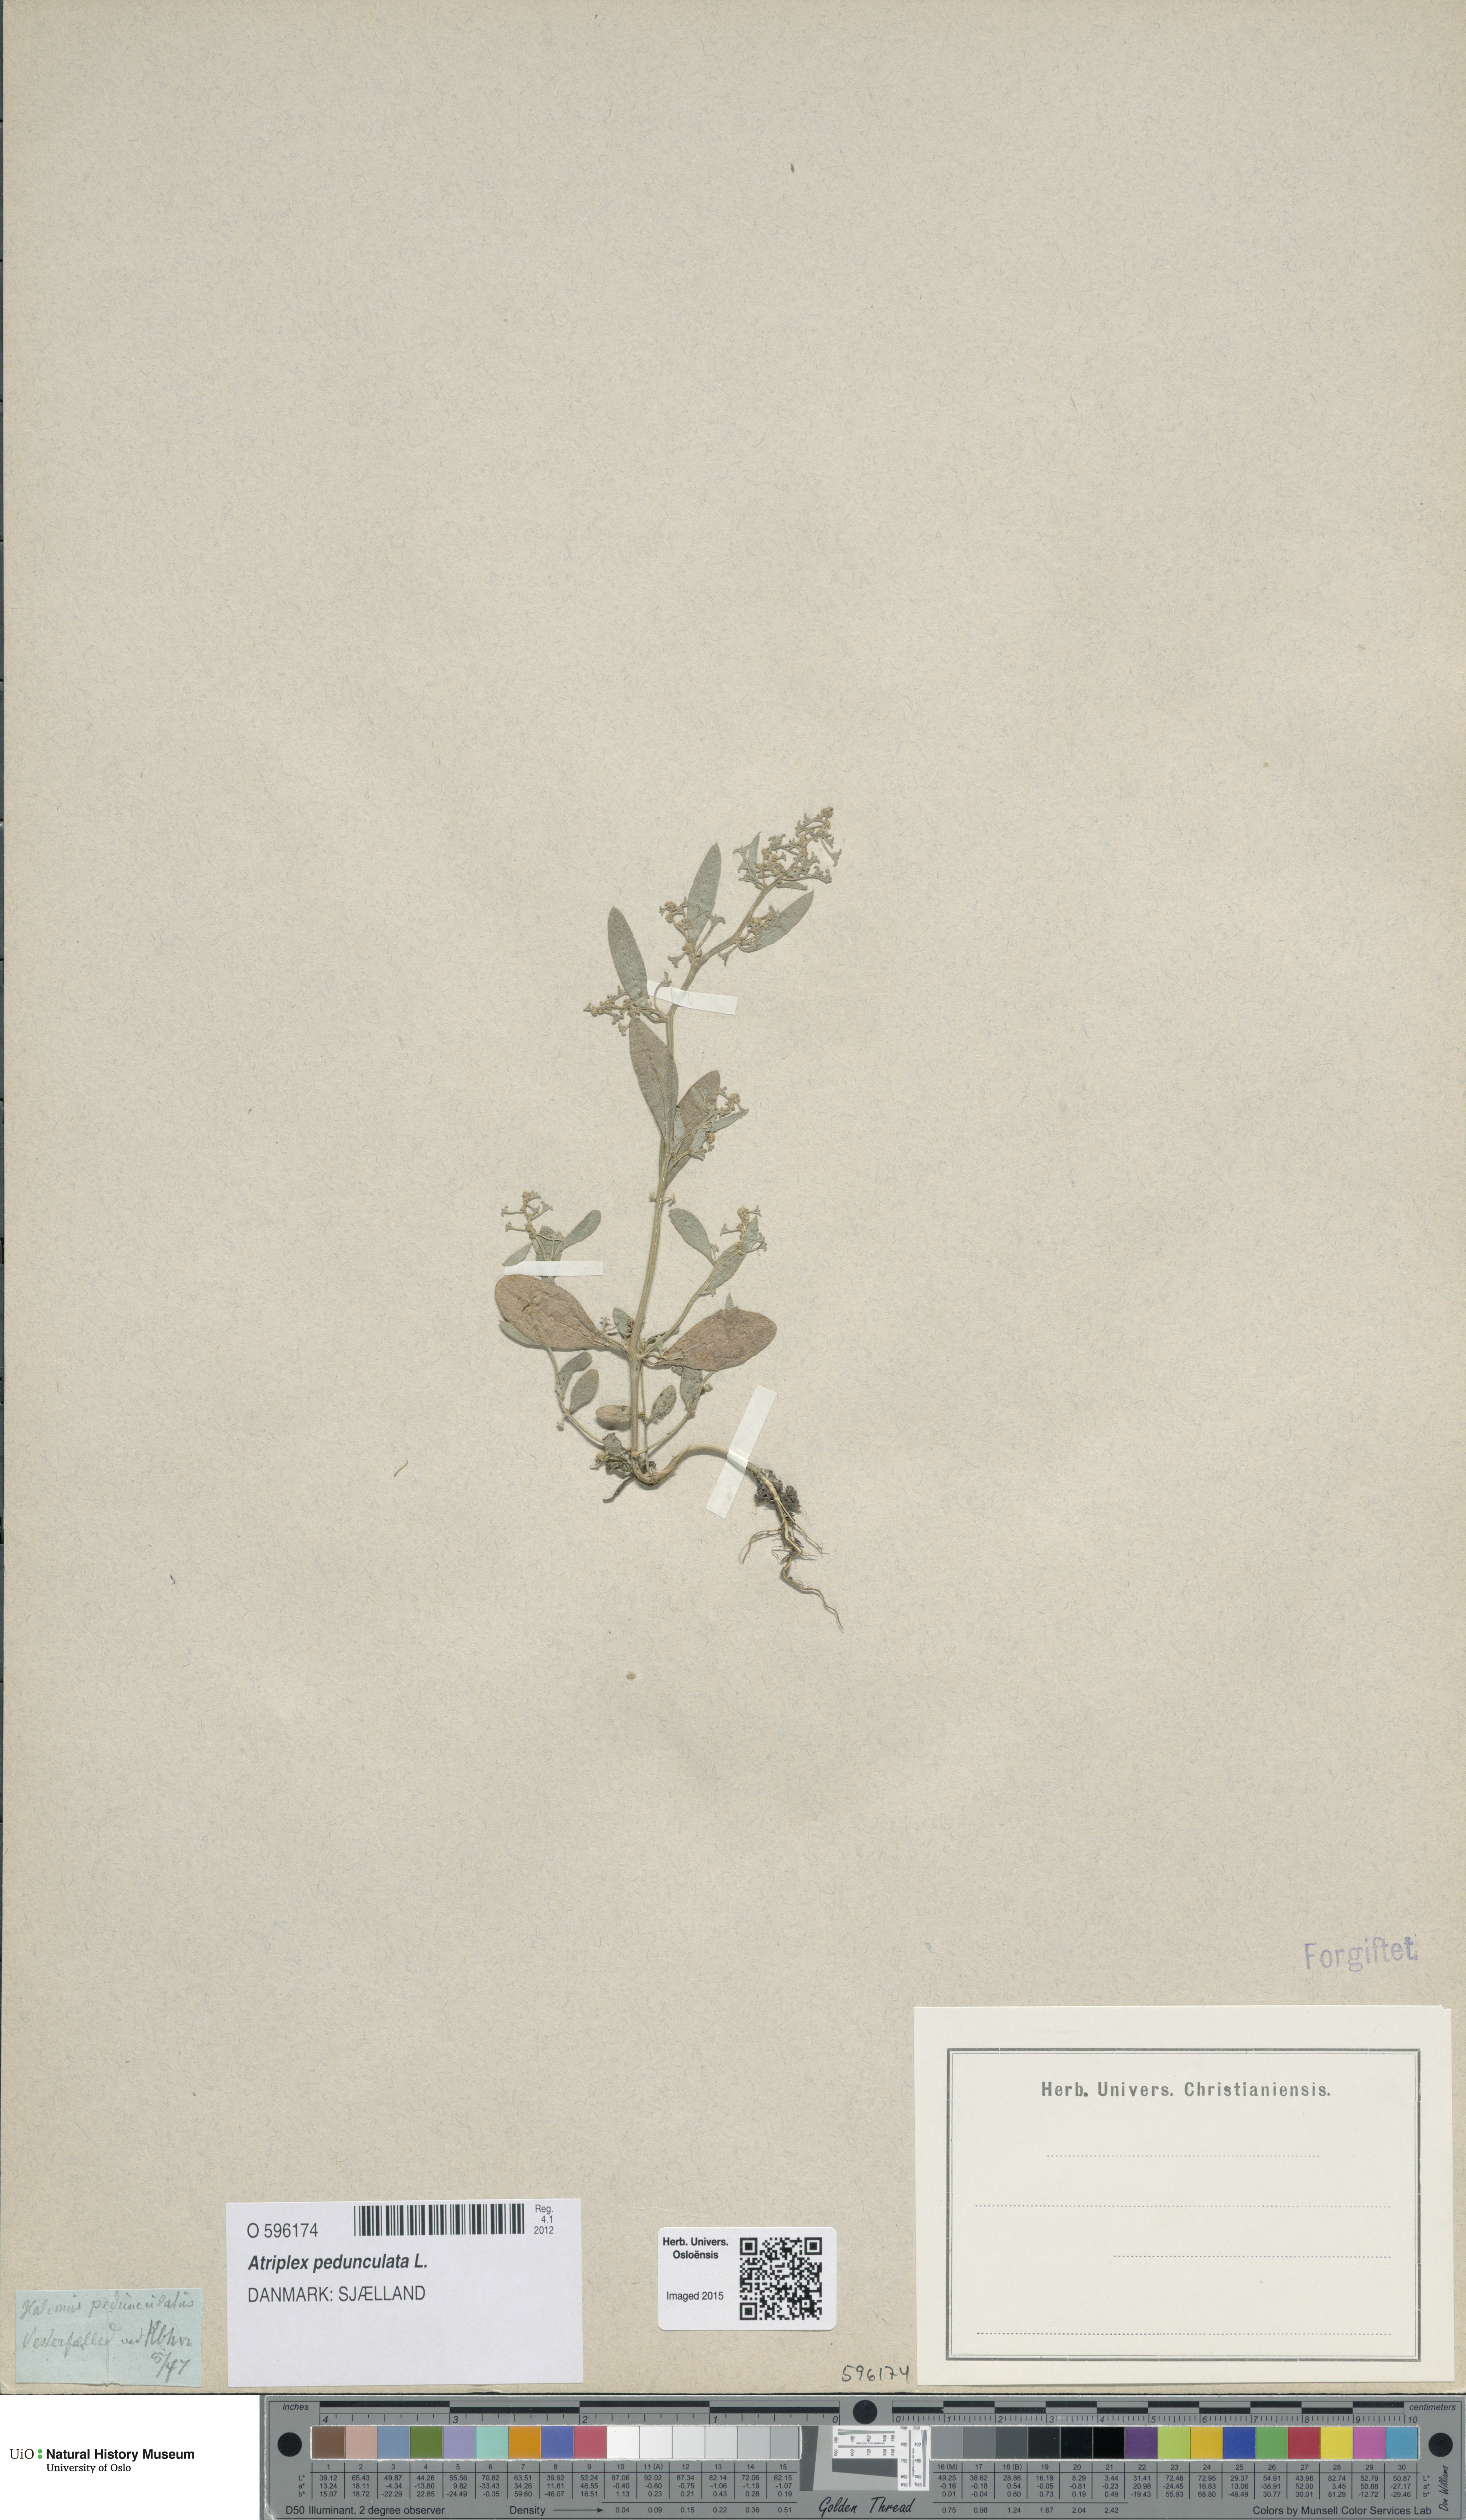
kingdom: Plantae
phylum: Tracheophyta
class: Magnoliopsida
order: Caryophyllales
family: Amaranthaceae
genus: Halimione
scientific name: Halimione pedunculata
